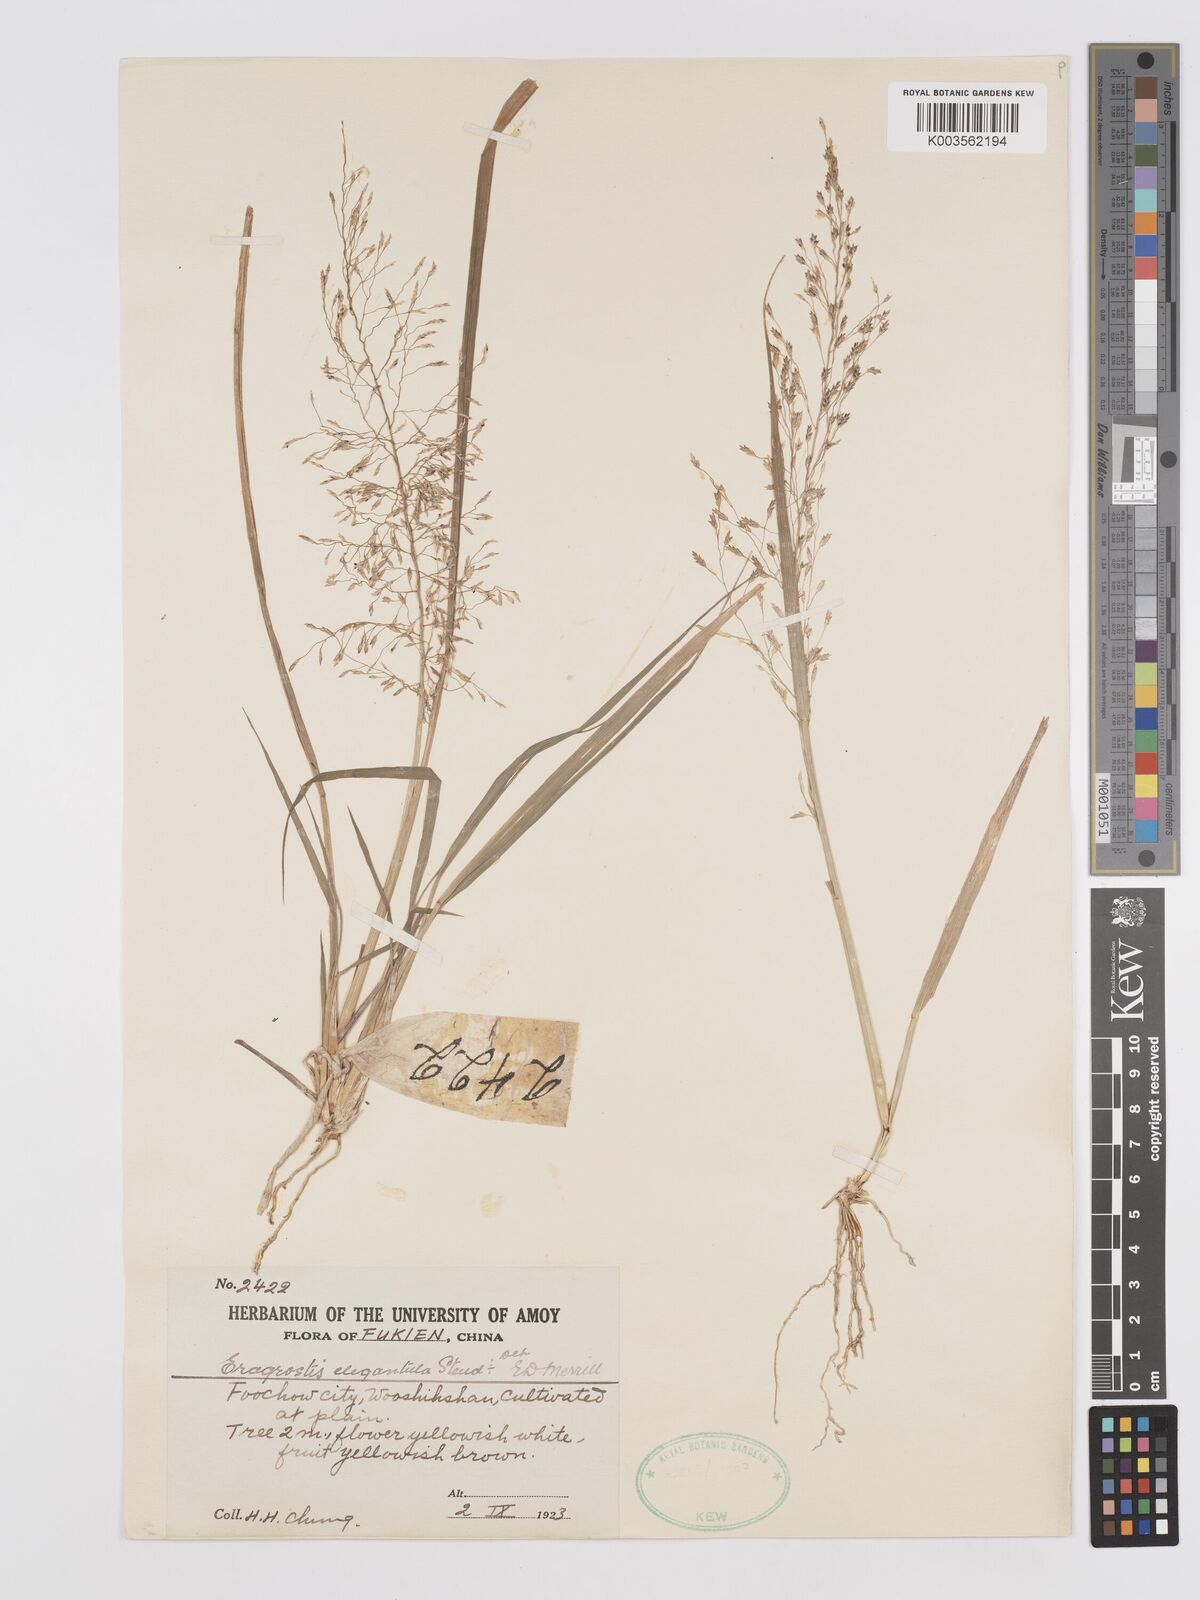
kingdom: Plantae
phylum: Tracheophyta
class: Liliopsida
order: Poales
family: Poaceae
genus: Eragrostis
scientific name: Eragrostis nutans
